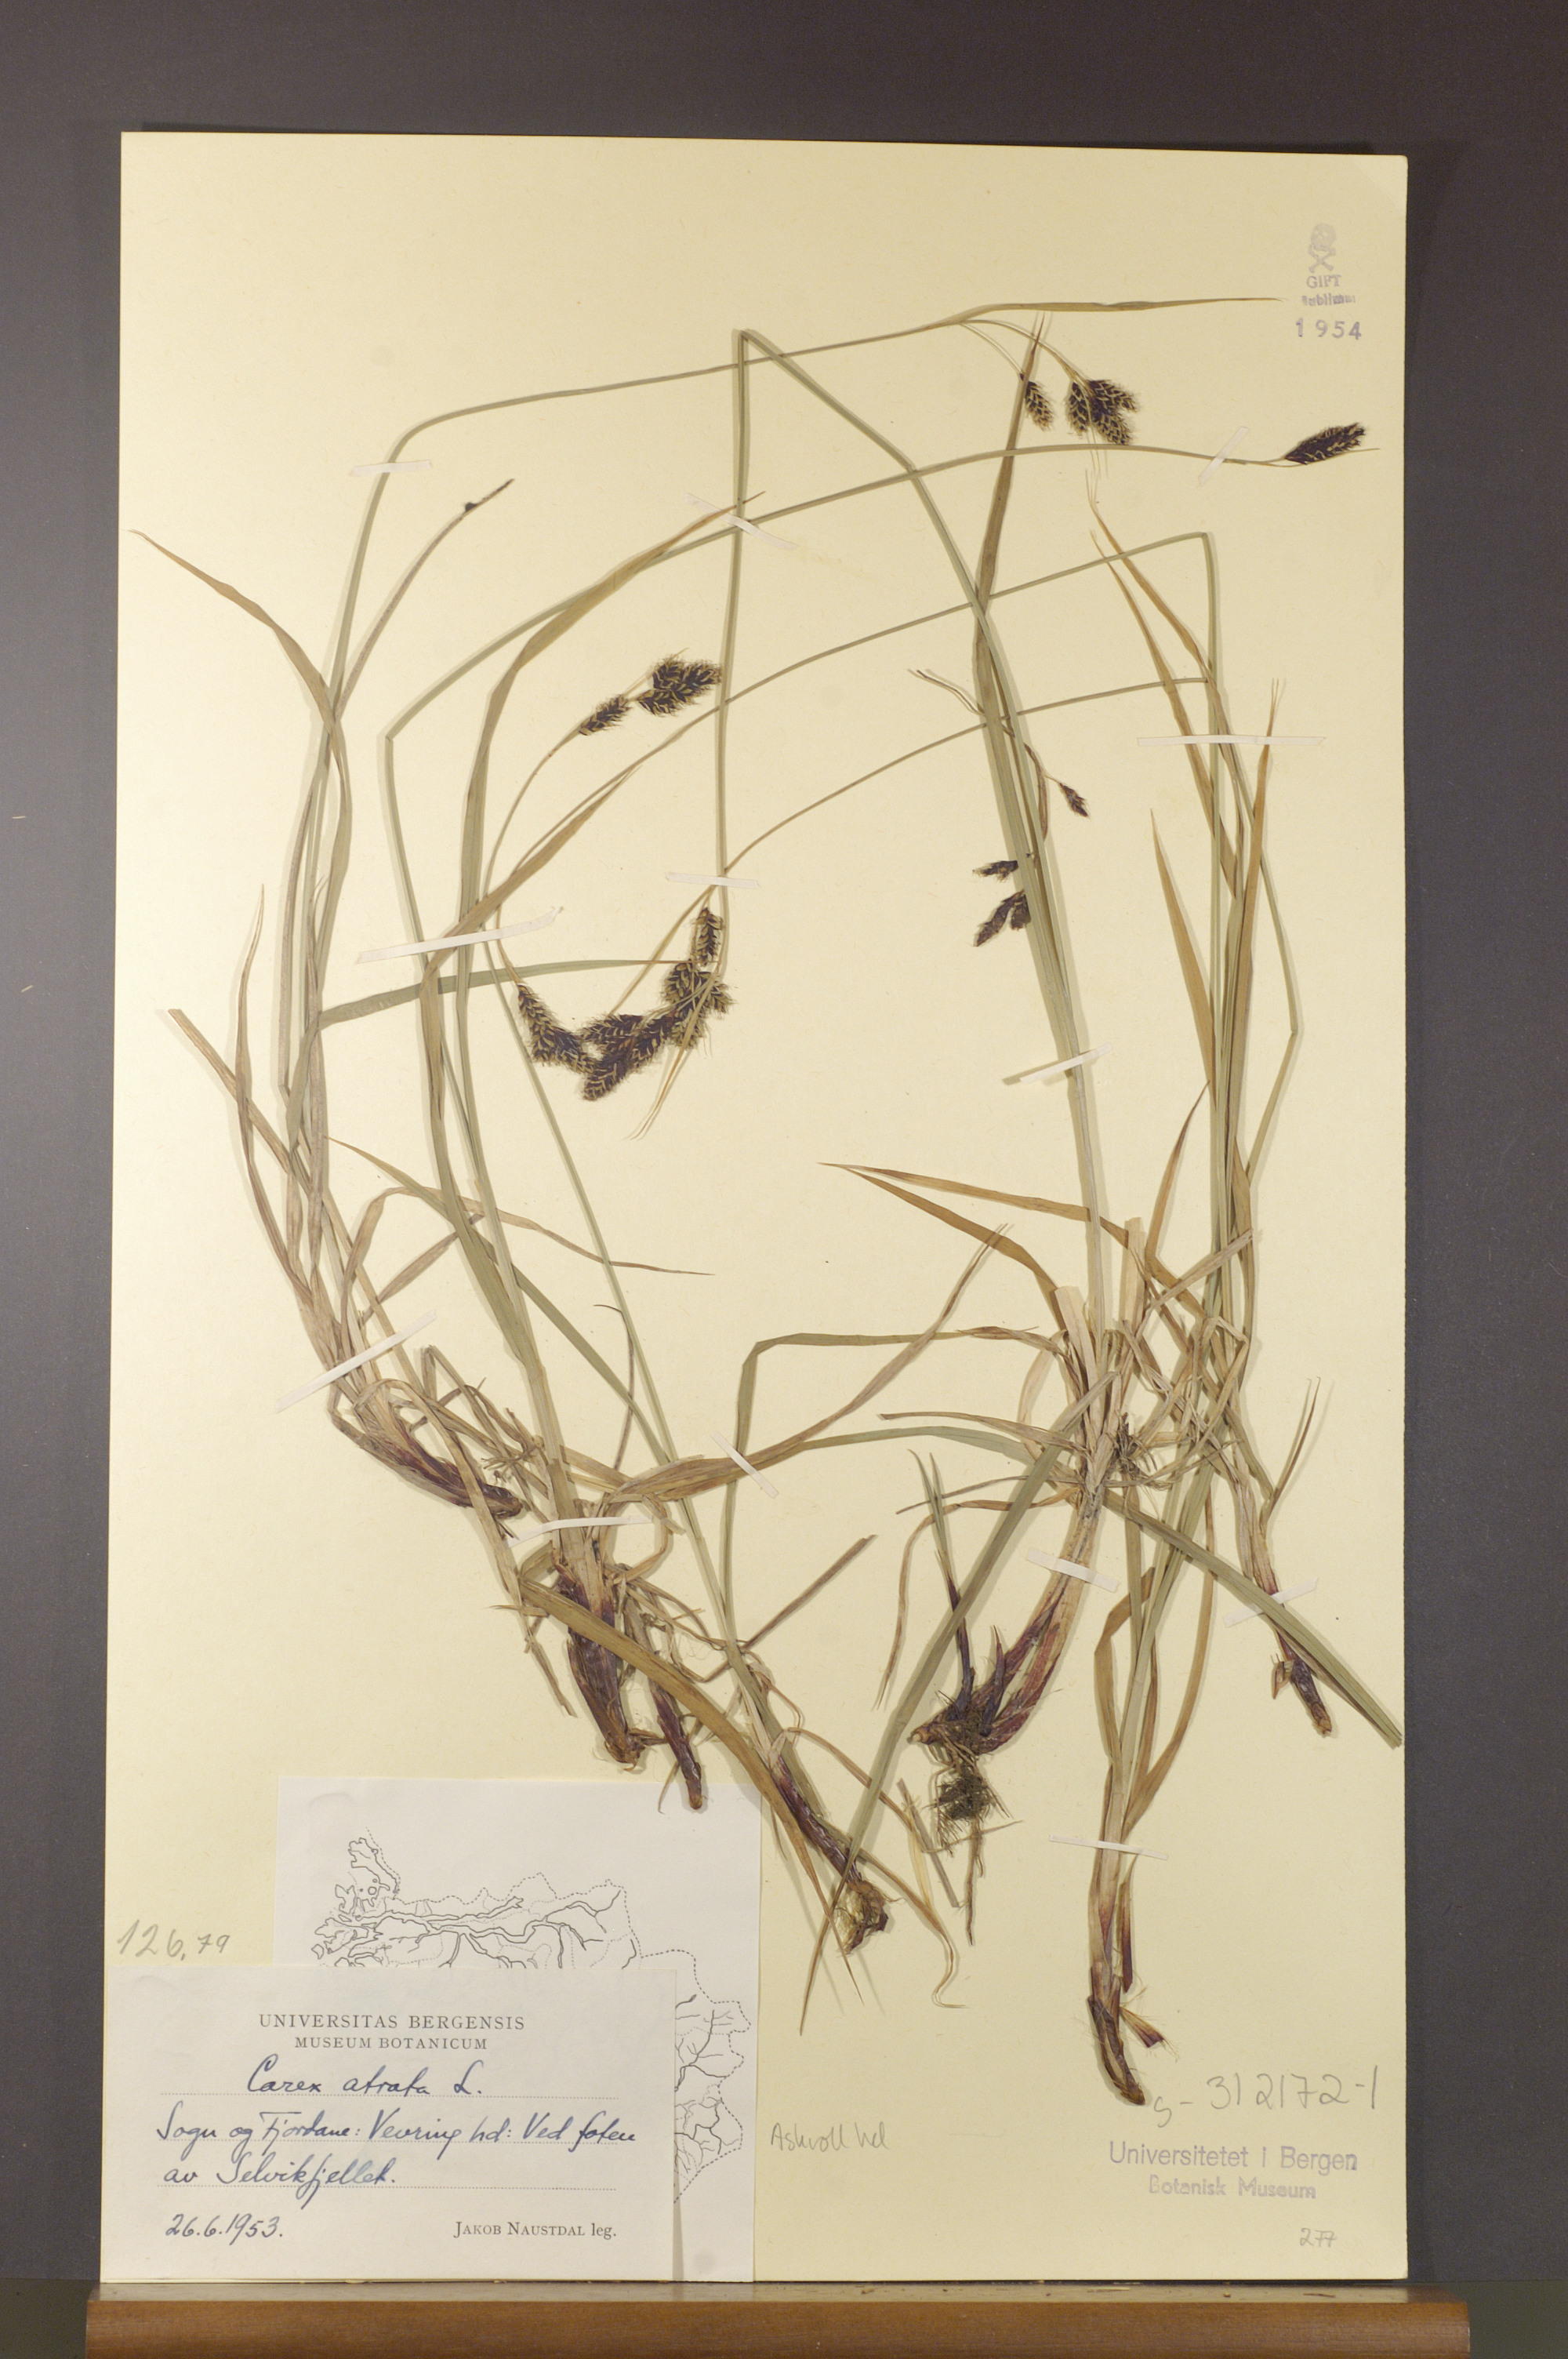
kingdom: Plantae
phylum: Tracheophyta
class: Liliopsida
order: Poales
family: Cyperaceae
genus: Carex
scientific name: Carex atrata
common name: Black alpine sedge
